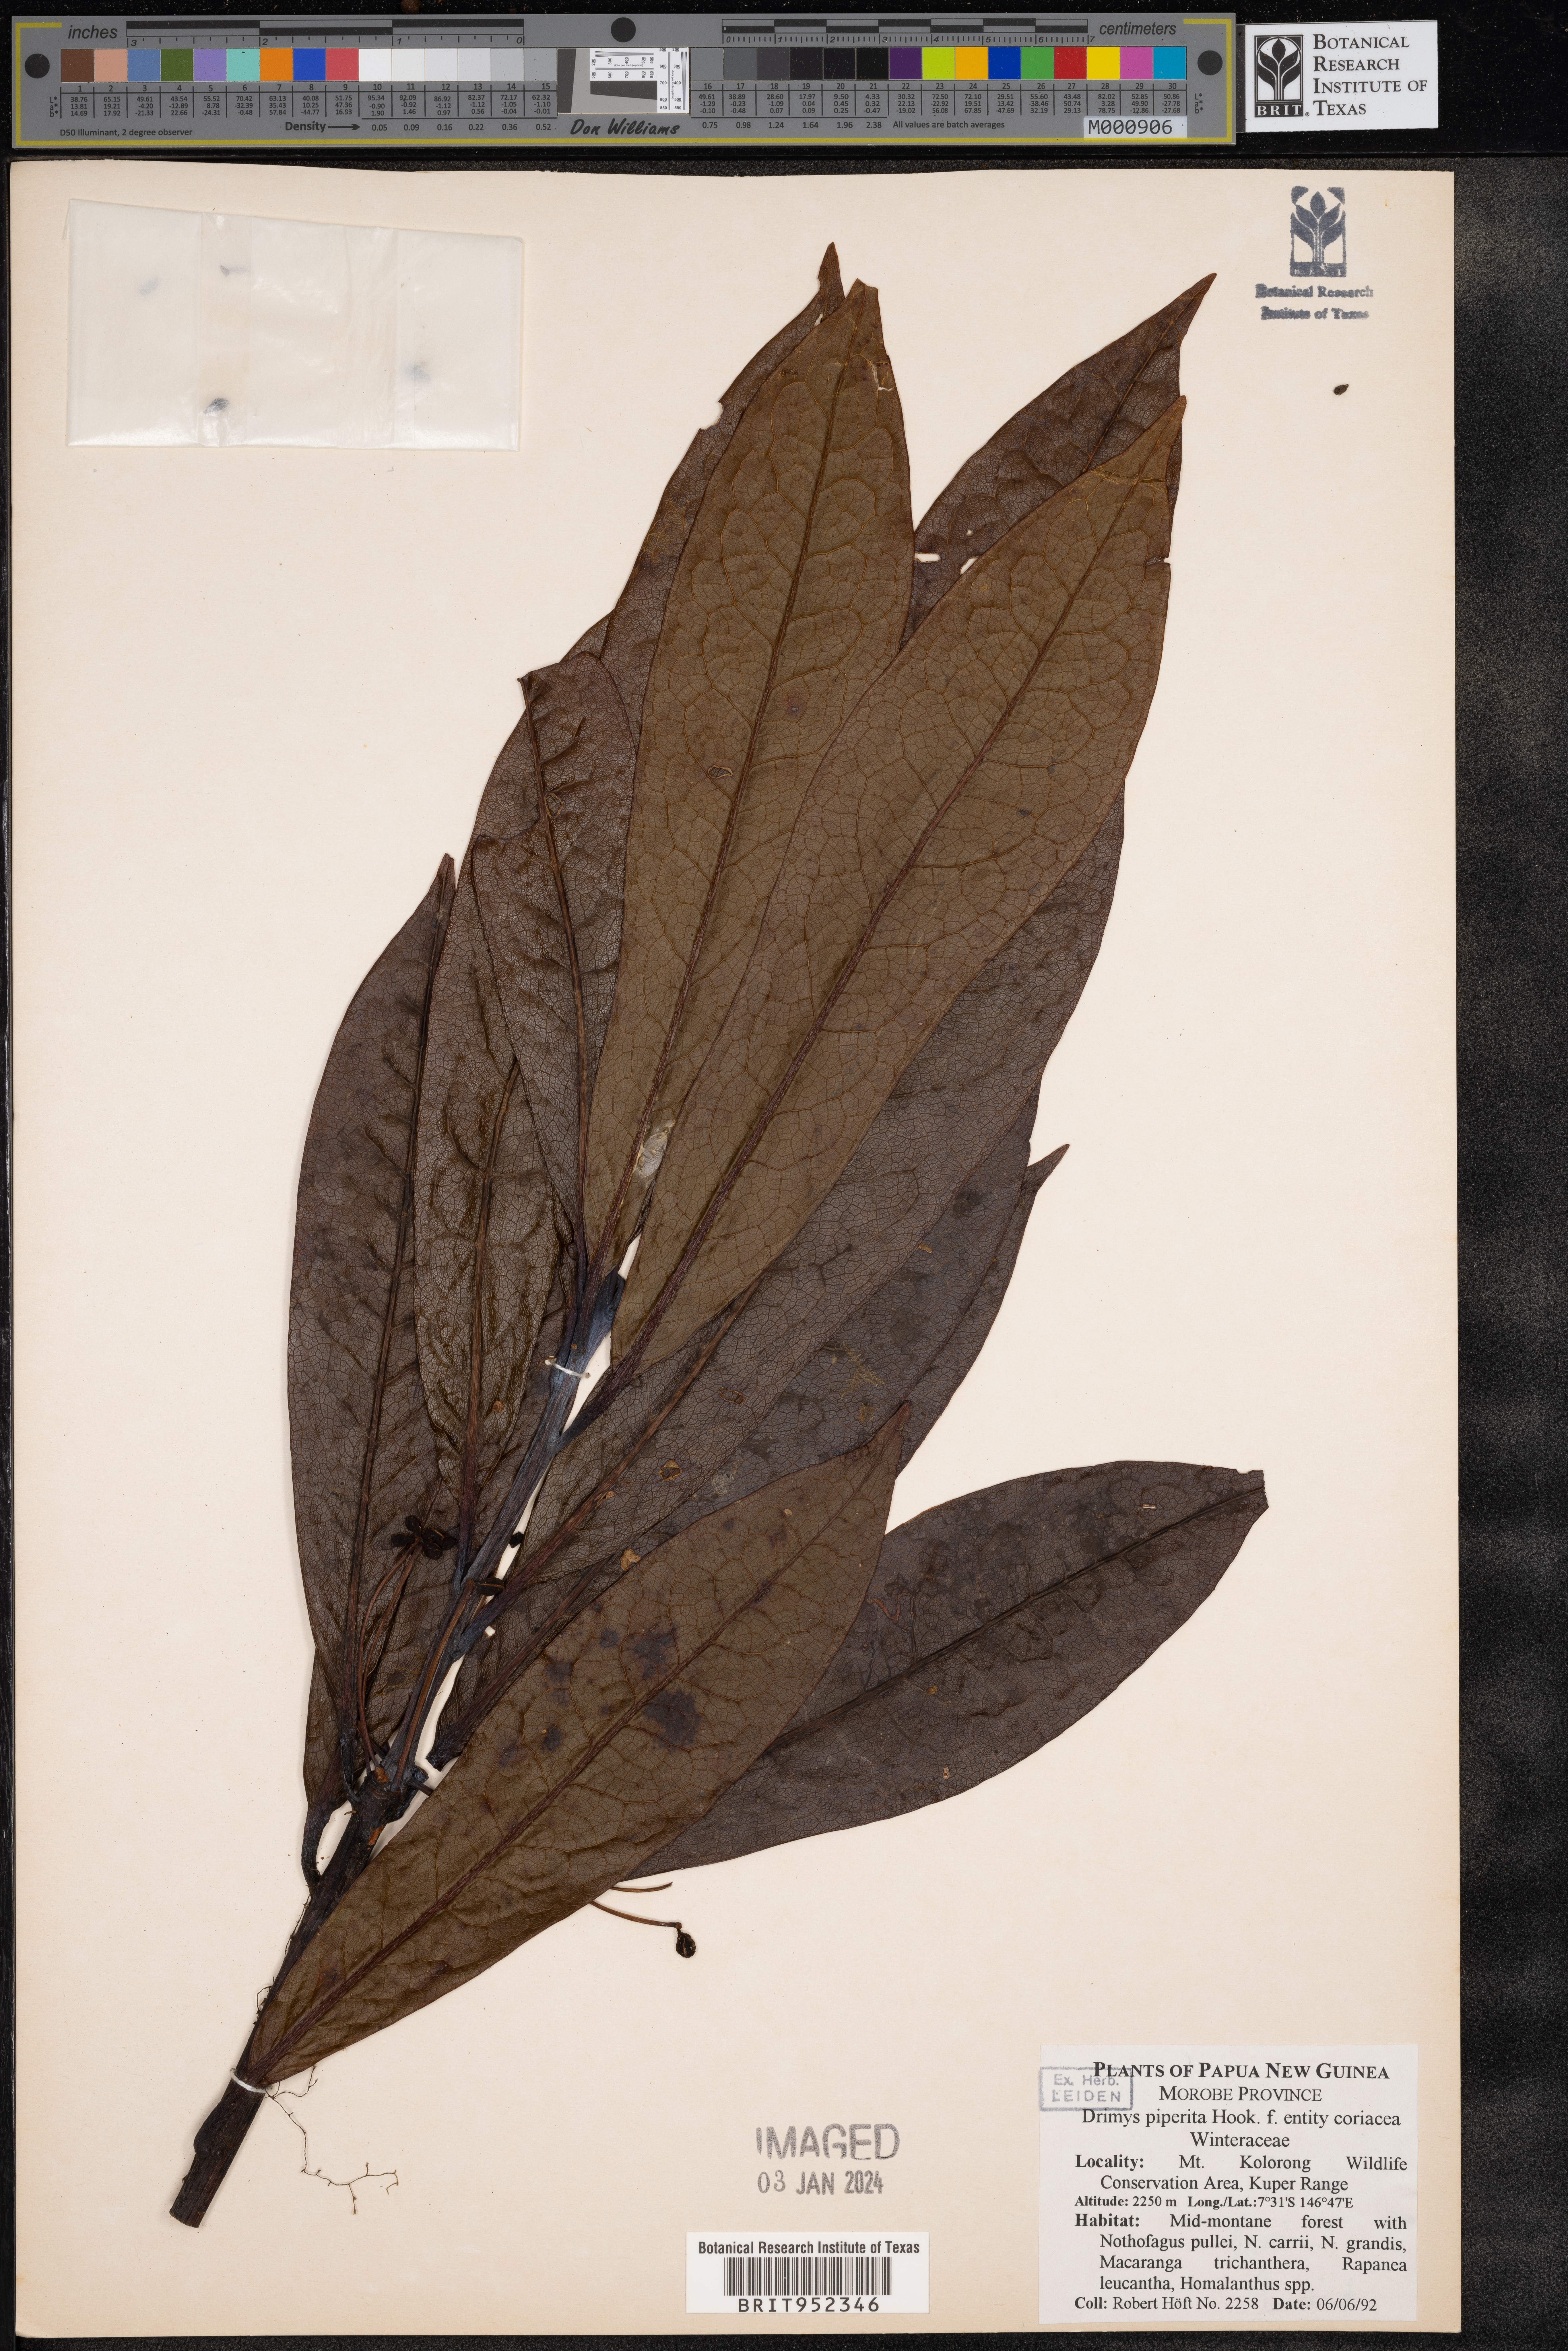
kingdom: Plantae
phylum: Tracheophyta
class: Magnoliopsida
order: Canellales
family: Winteraceae
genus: Drimys
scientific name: Drimys piperita
